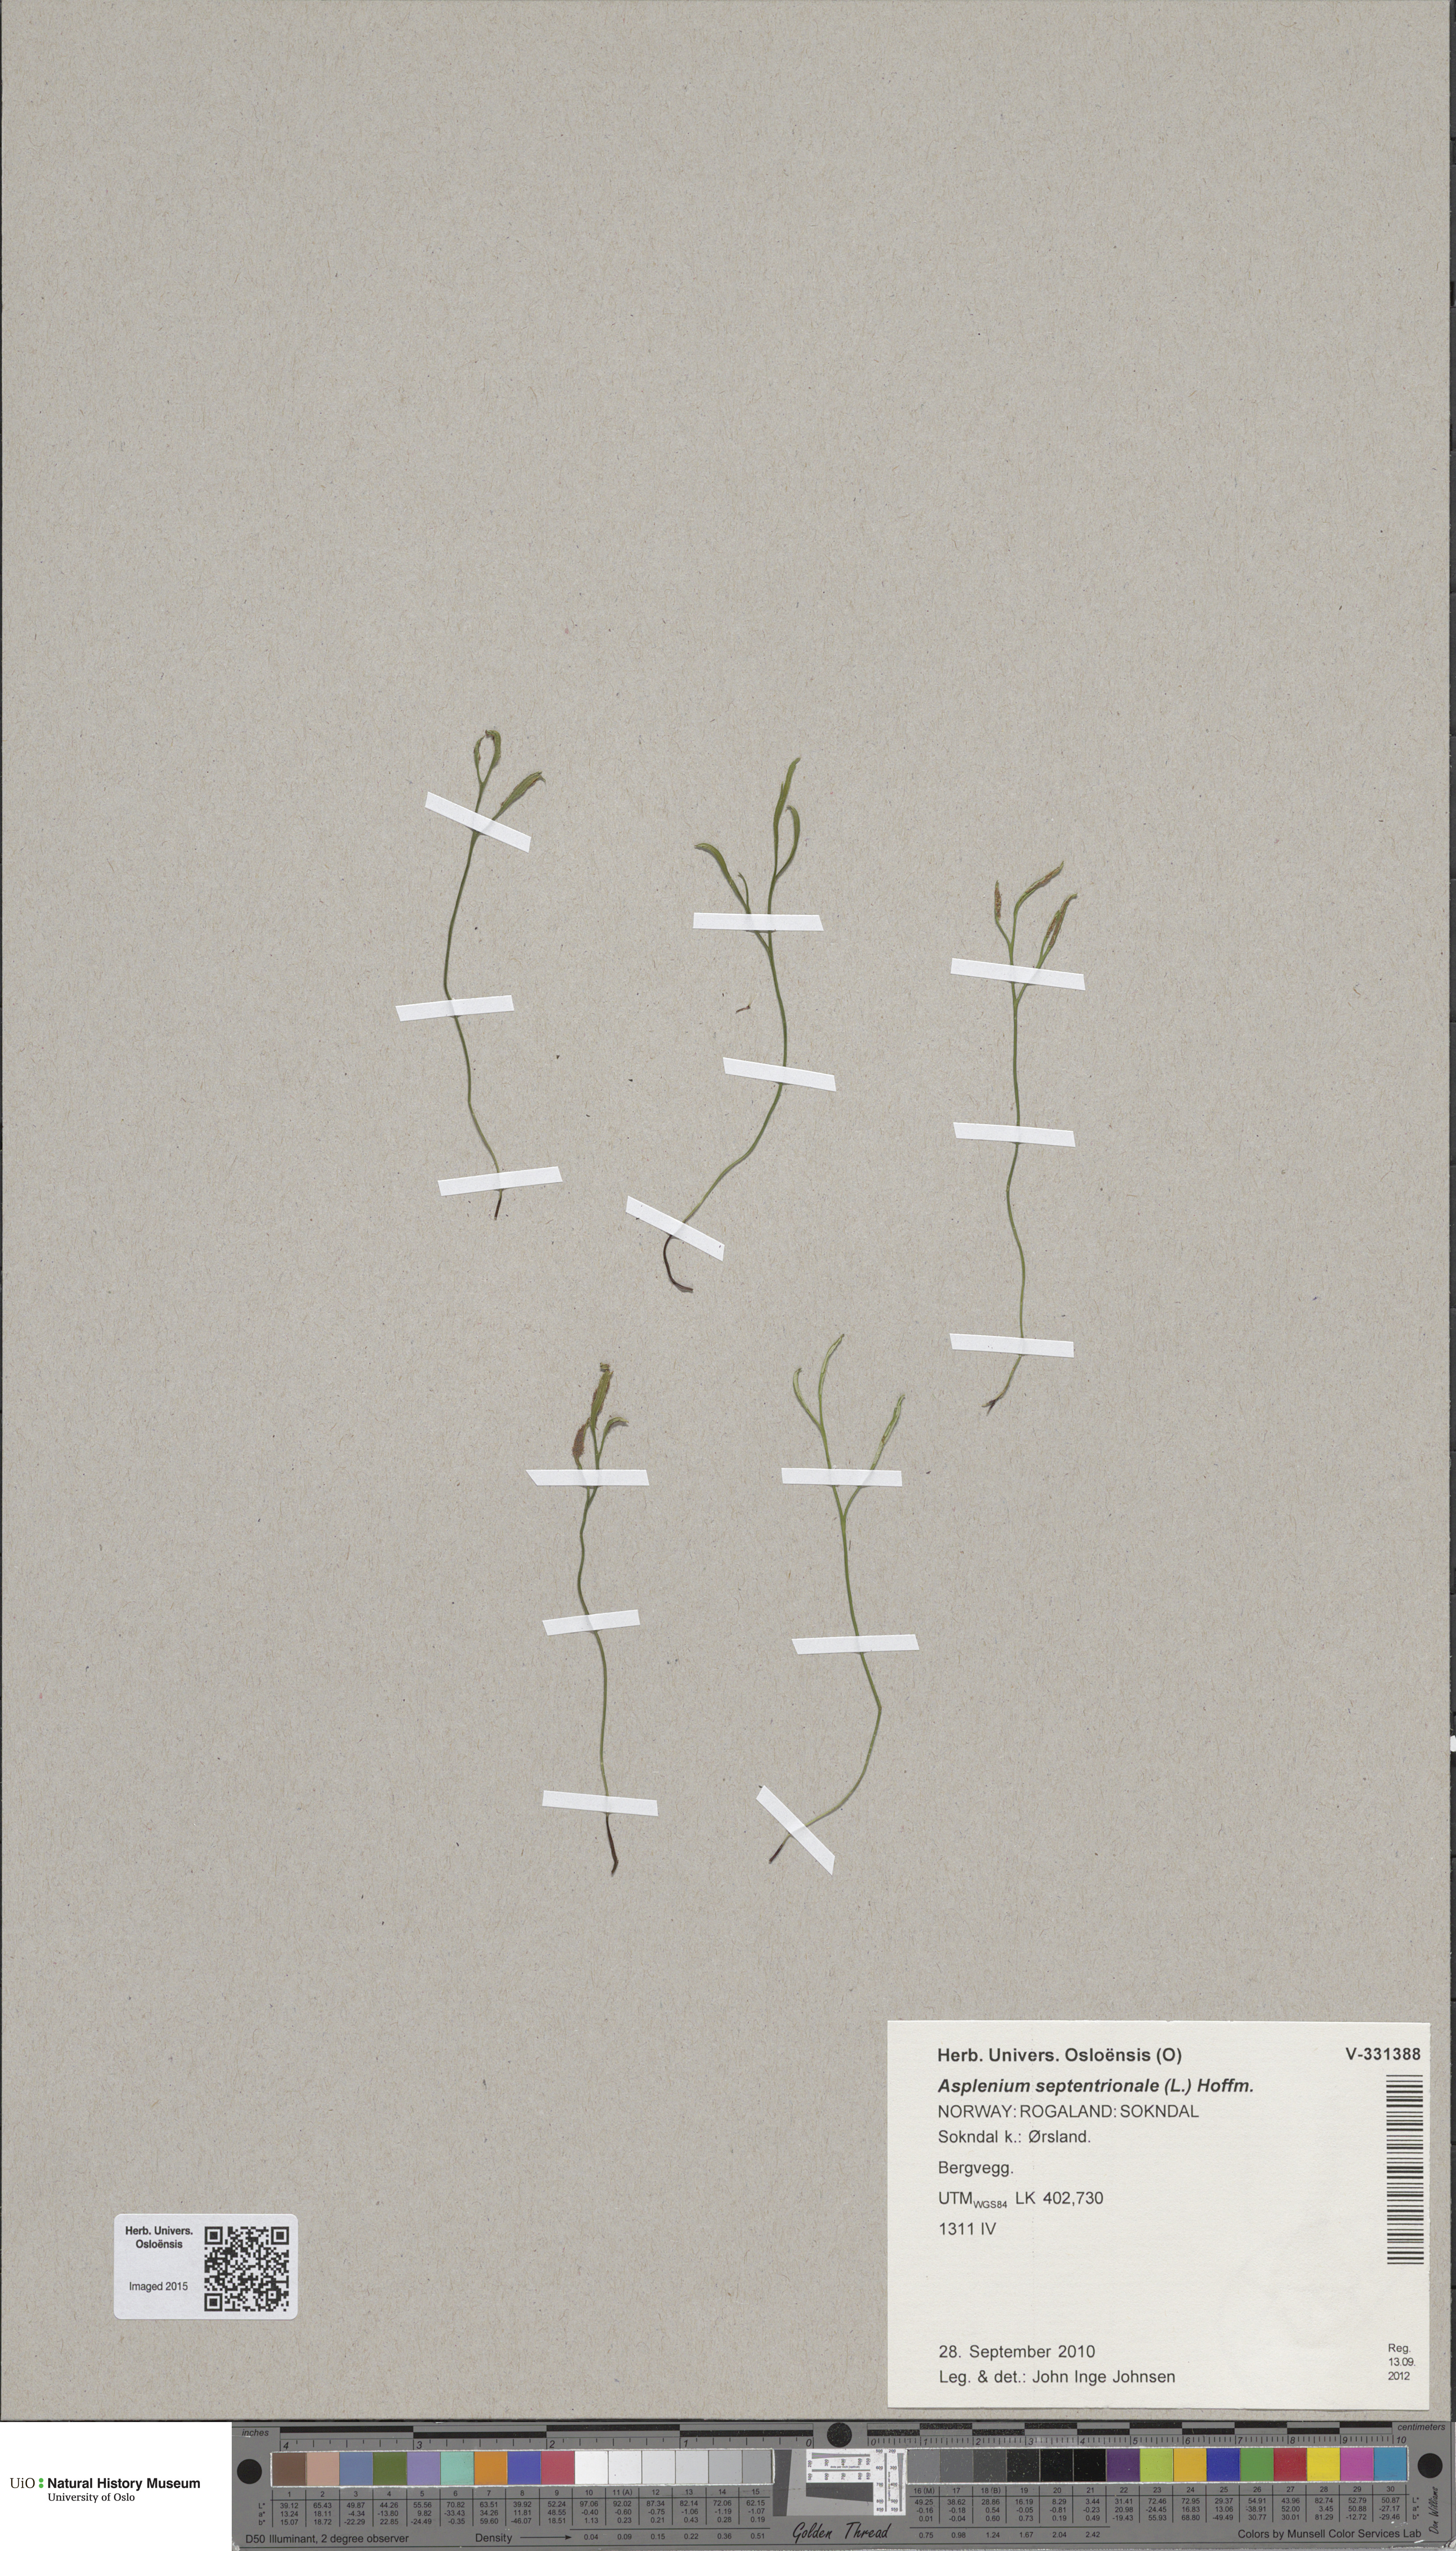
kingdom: Plantae
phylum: Tracheophyta
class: Polypodiopsida
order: Polypodiales
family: Aspleniaceae
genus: Asplenium
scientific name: Asplenium septentrionale
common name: Forked spleenwort
